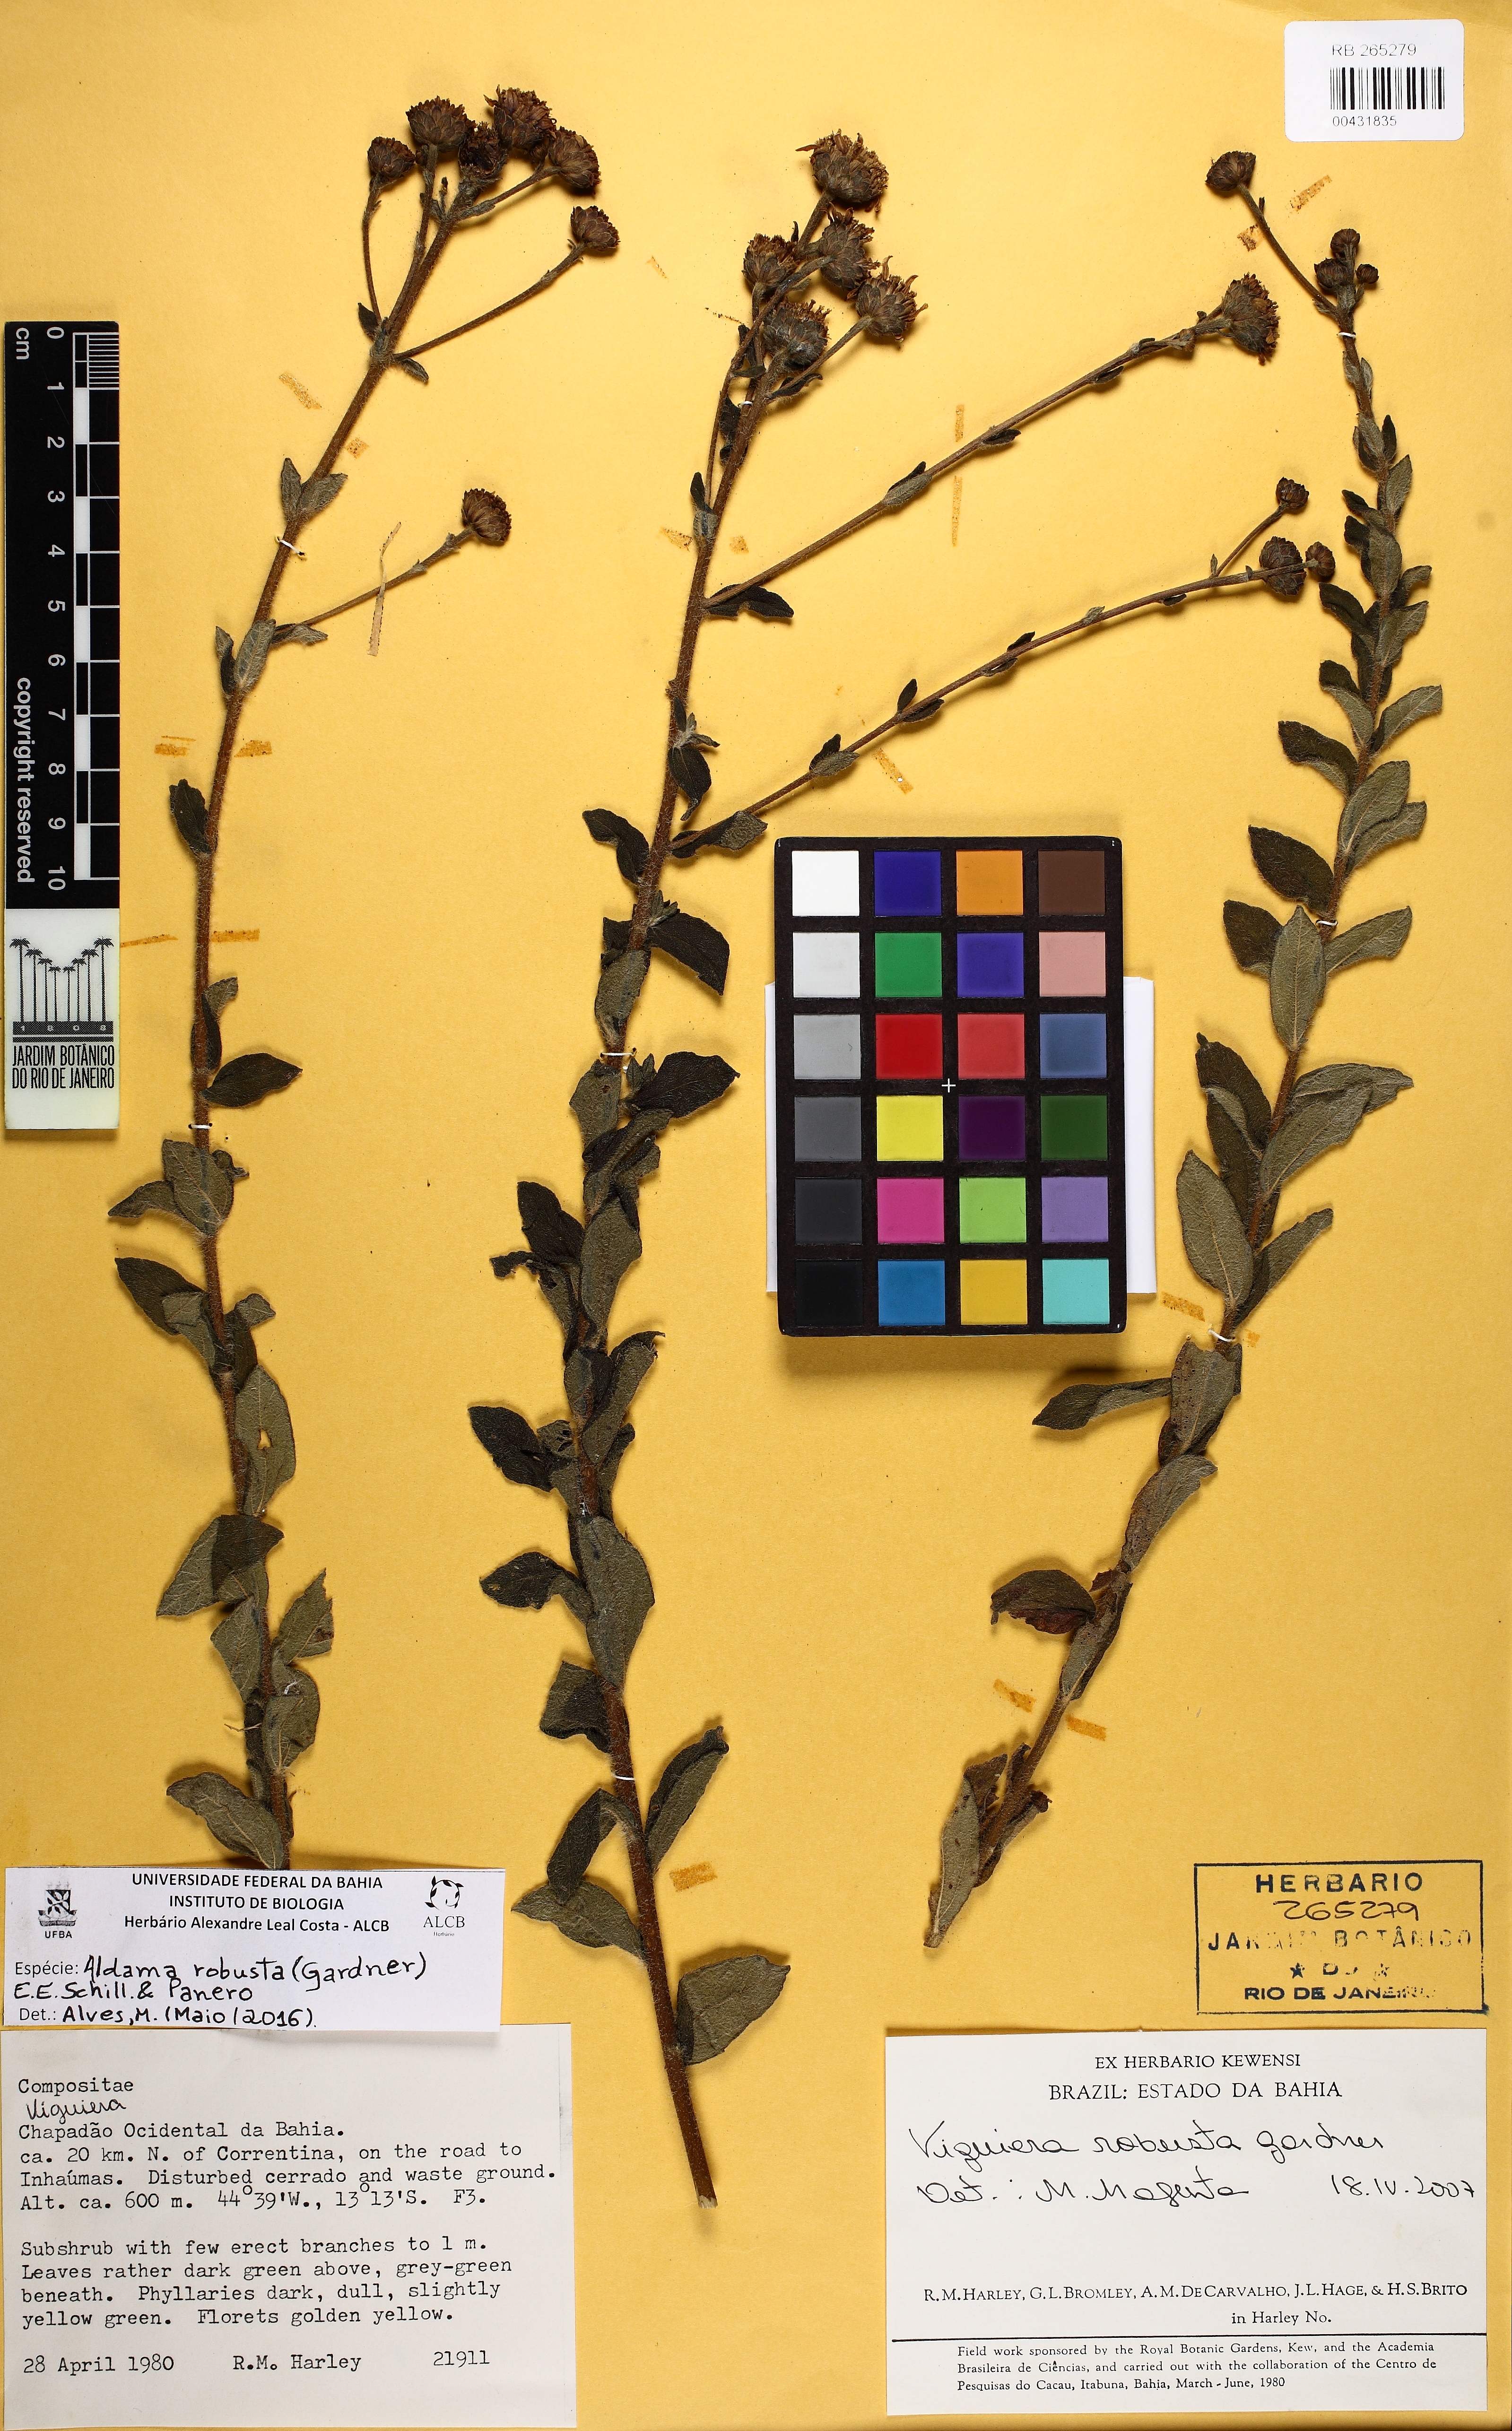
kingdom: Plantae
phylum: Tracheophyta
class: Magnoliopsida
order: Asterales
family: Asteraceae
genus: Aldama
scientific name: Aldama robusta
